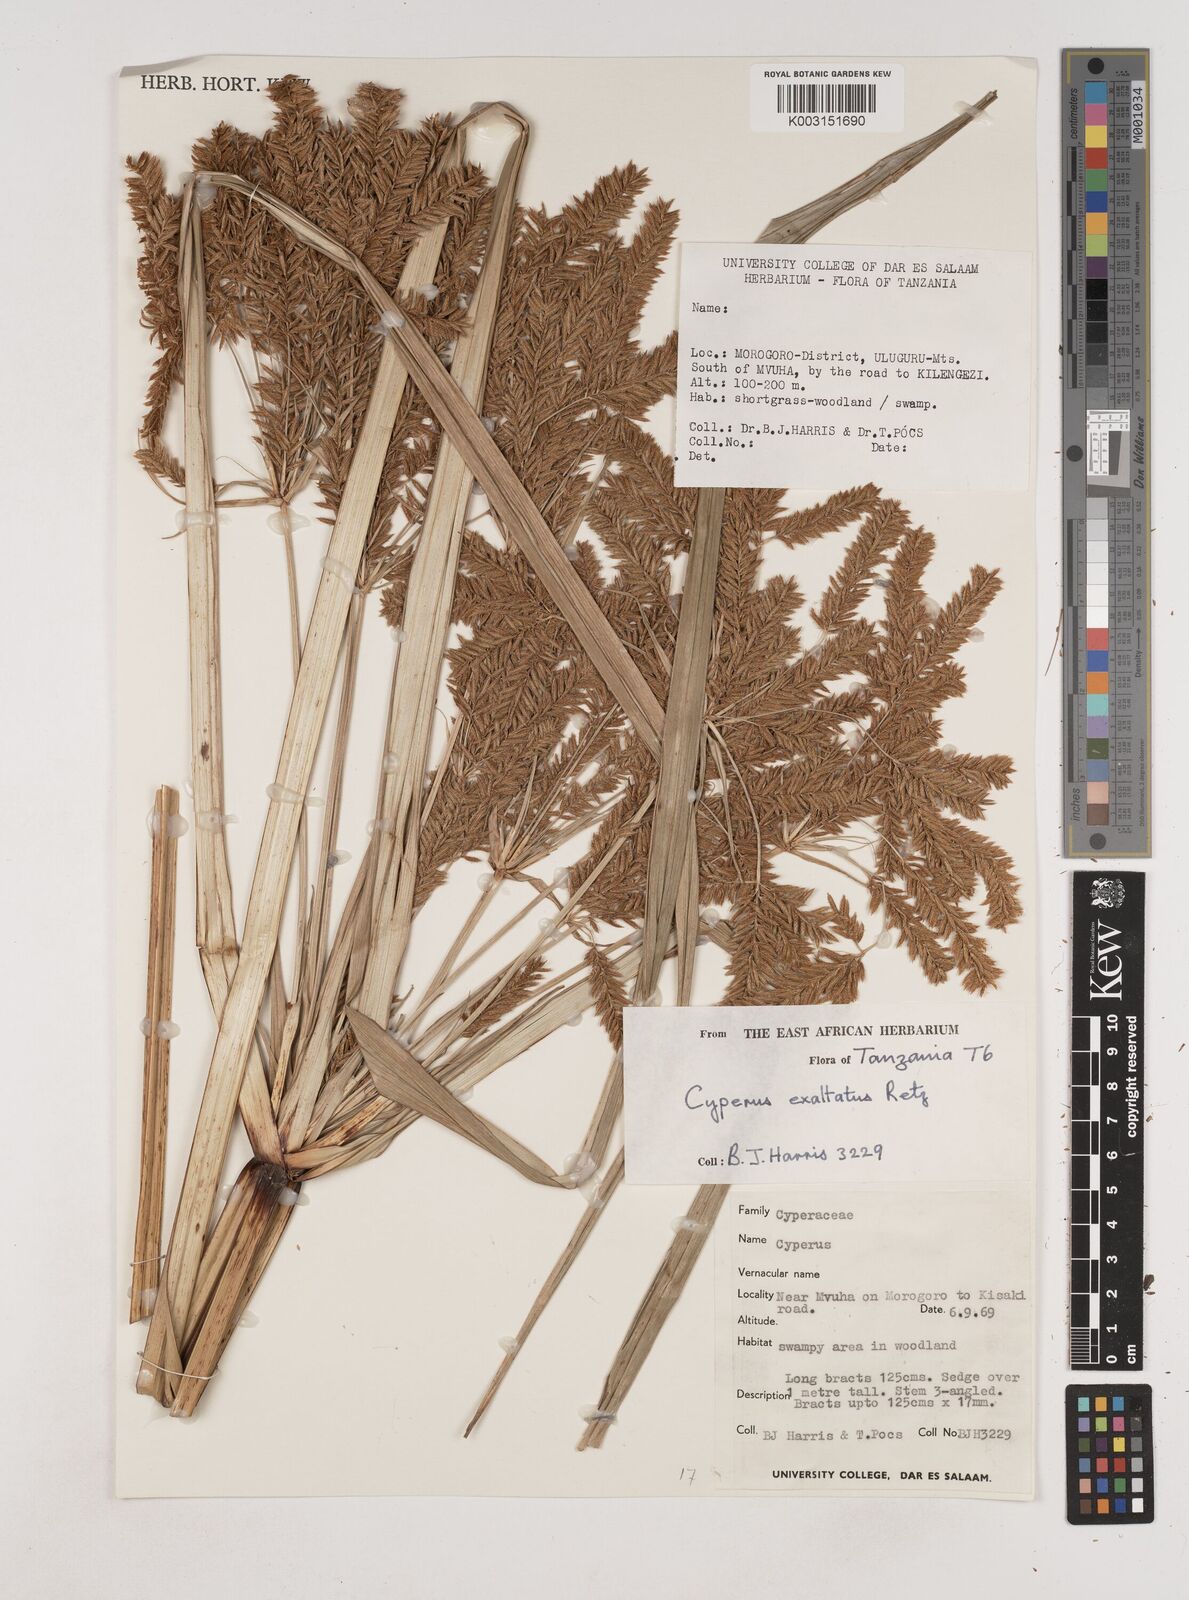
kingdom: Plantae
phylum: Tracheophyta
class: Liliopsida
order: Poales
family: Cyperaceae
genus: Cyperus
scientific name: Cyperus exaltatus
